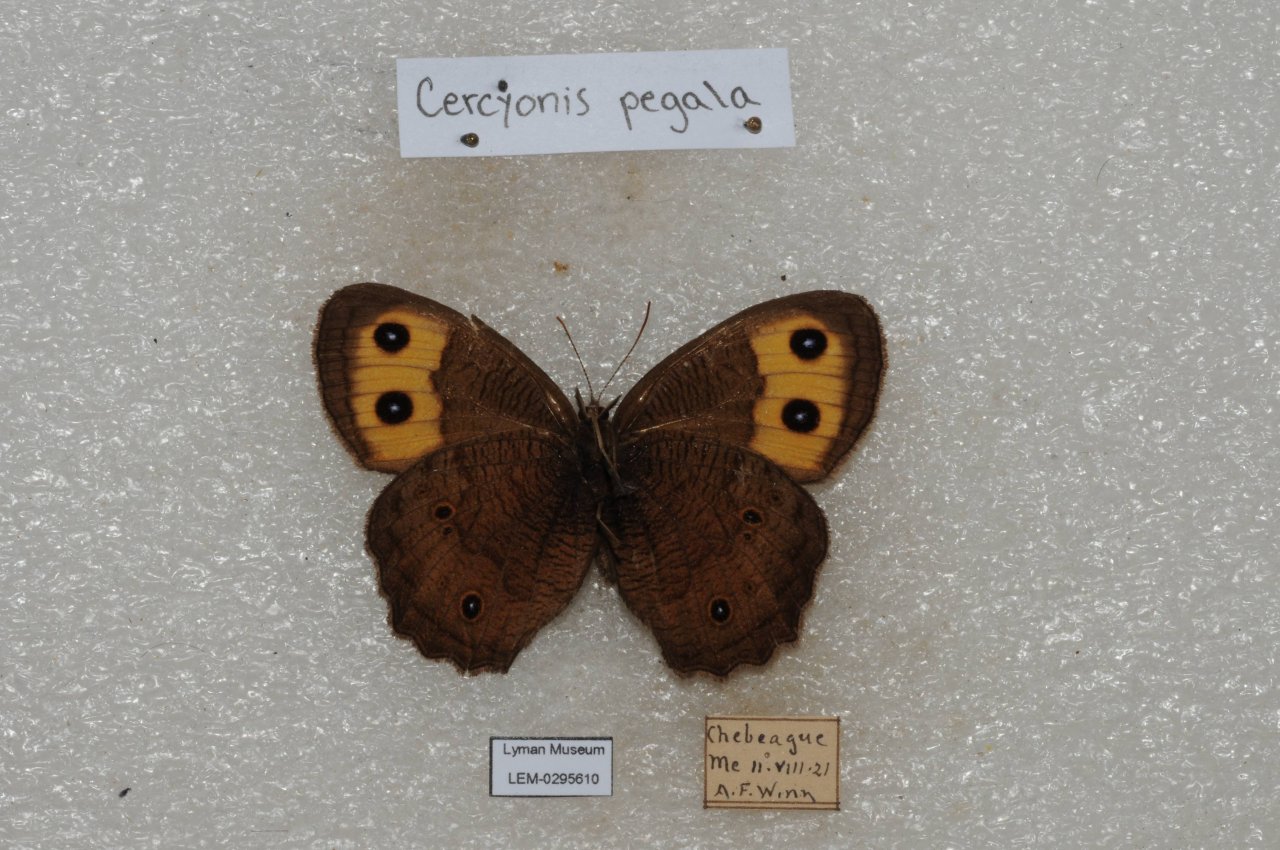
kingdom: Animalia
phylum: Arthropoda
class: Insecta
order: Lepidoptera
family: Nymphalidae
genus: Cercyonis
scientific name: Cercyonis pegala
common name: Common Wood-Nymph
